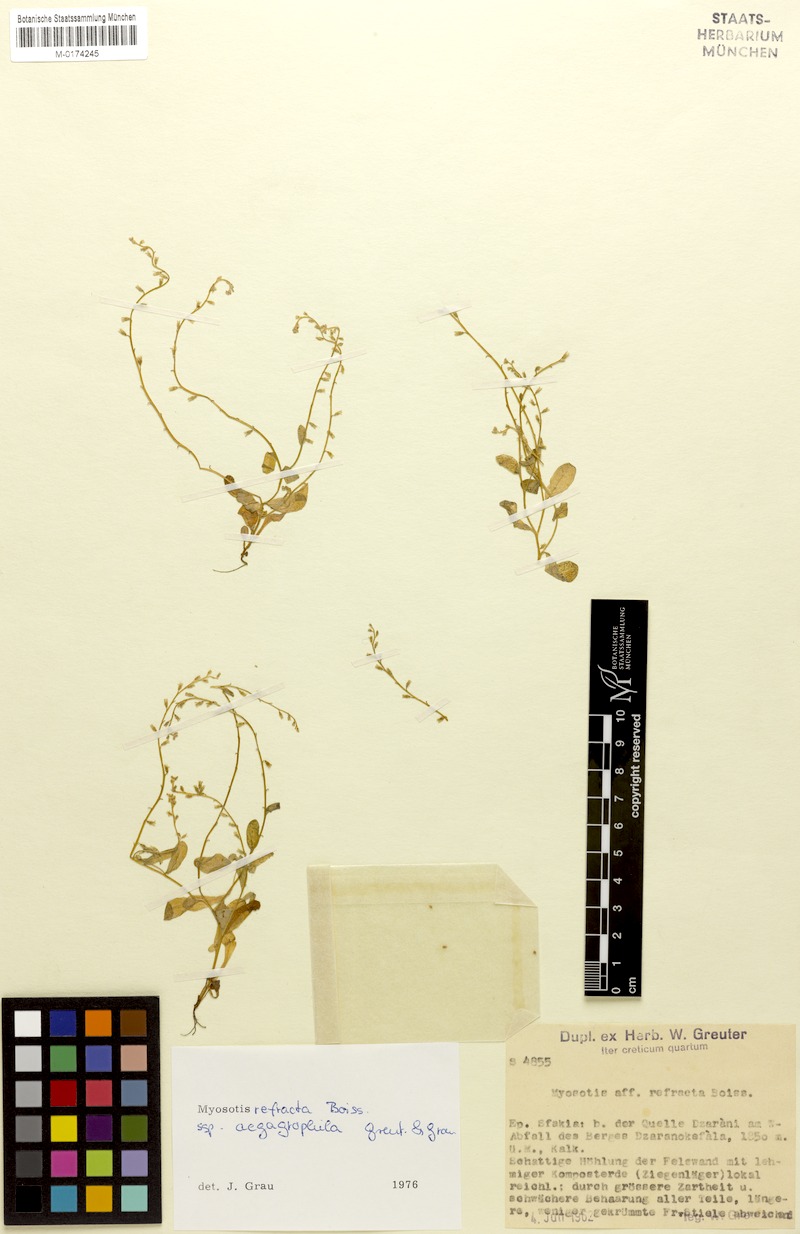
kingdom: Plantae
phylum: Tracheophyta
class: Magnoliopsida
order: Boraginales
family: Boraginaceae
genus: Myosotis
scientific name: Myosotis paucipilosa
